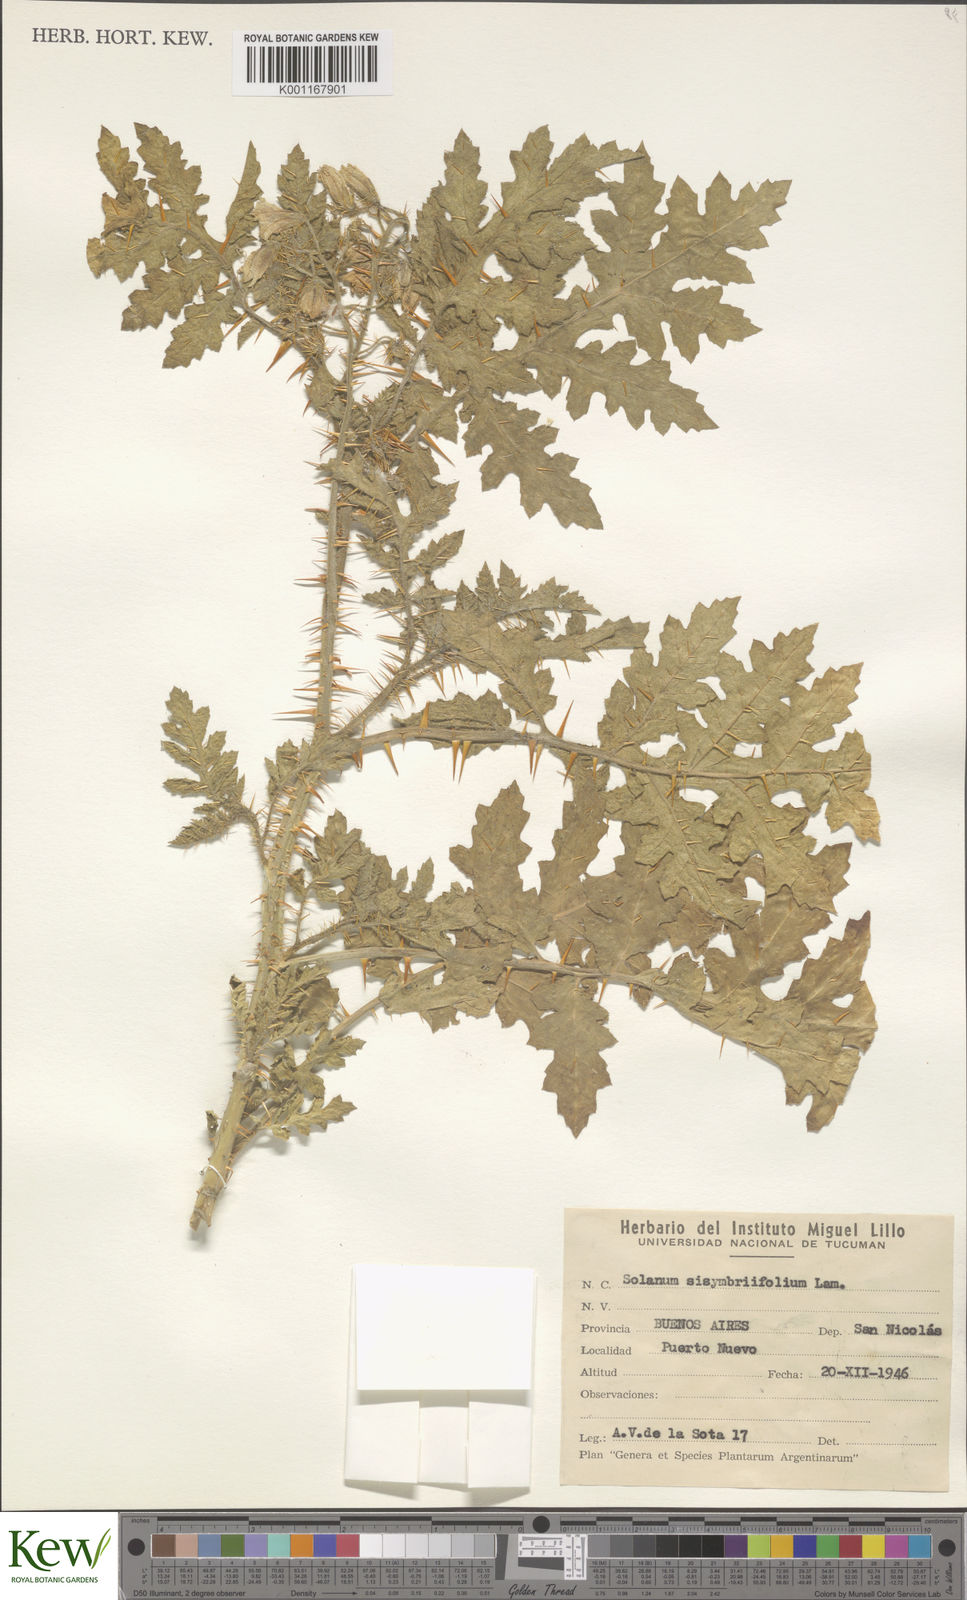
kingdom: Plantae
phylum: Tracheophyta
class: Magnoliopsida
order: Solanales
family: Solanaceae
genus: Solanum
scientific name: Solanum sisymbriifolium
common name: Red buffalo-bur
